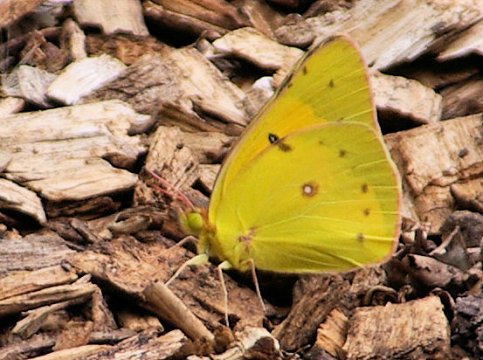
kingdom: Animalia
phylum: Arthropoda
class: Insecta
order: Lepidoptera
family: Pieridae
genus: Colias
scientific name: Colias eurytheme
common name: Orange Sulphur
